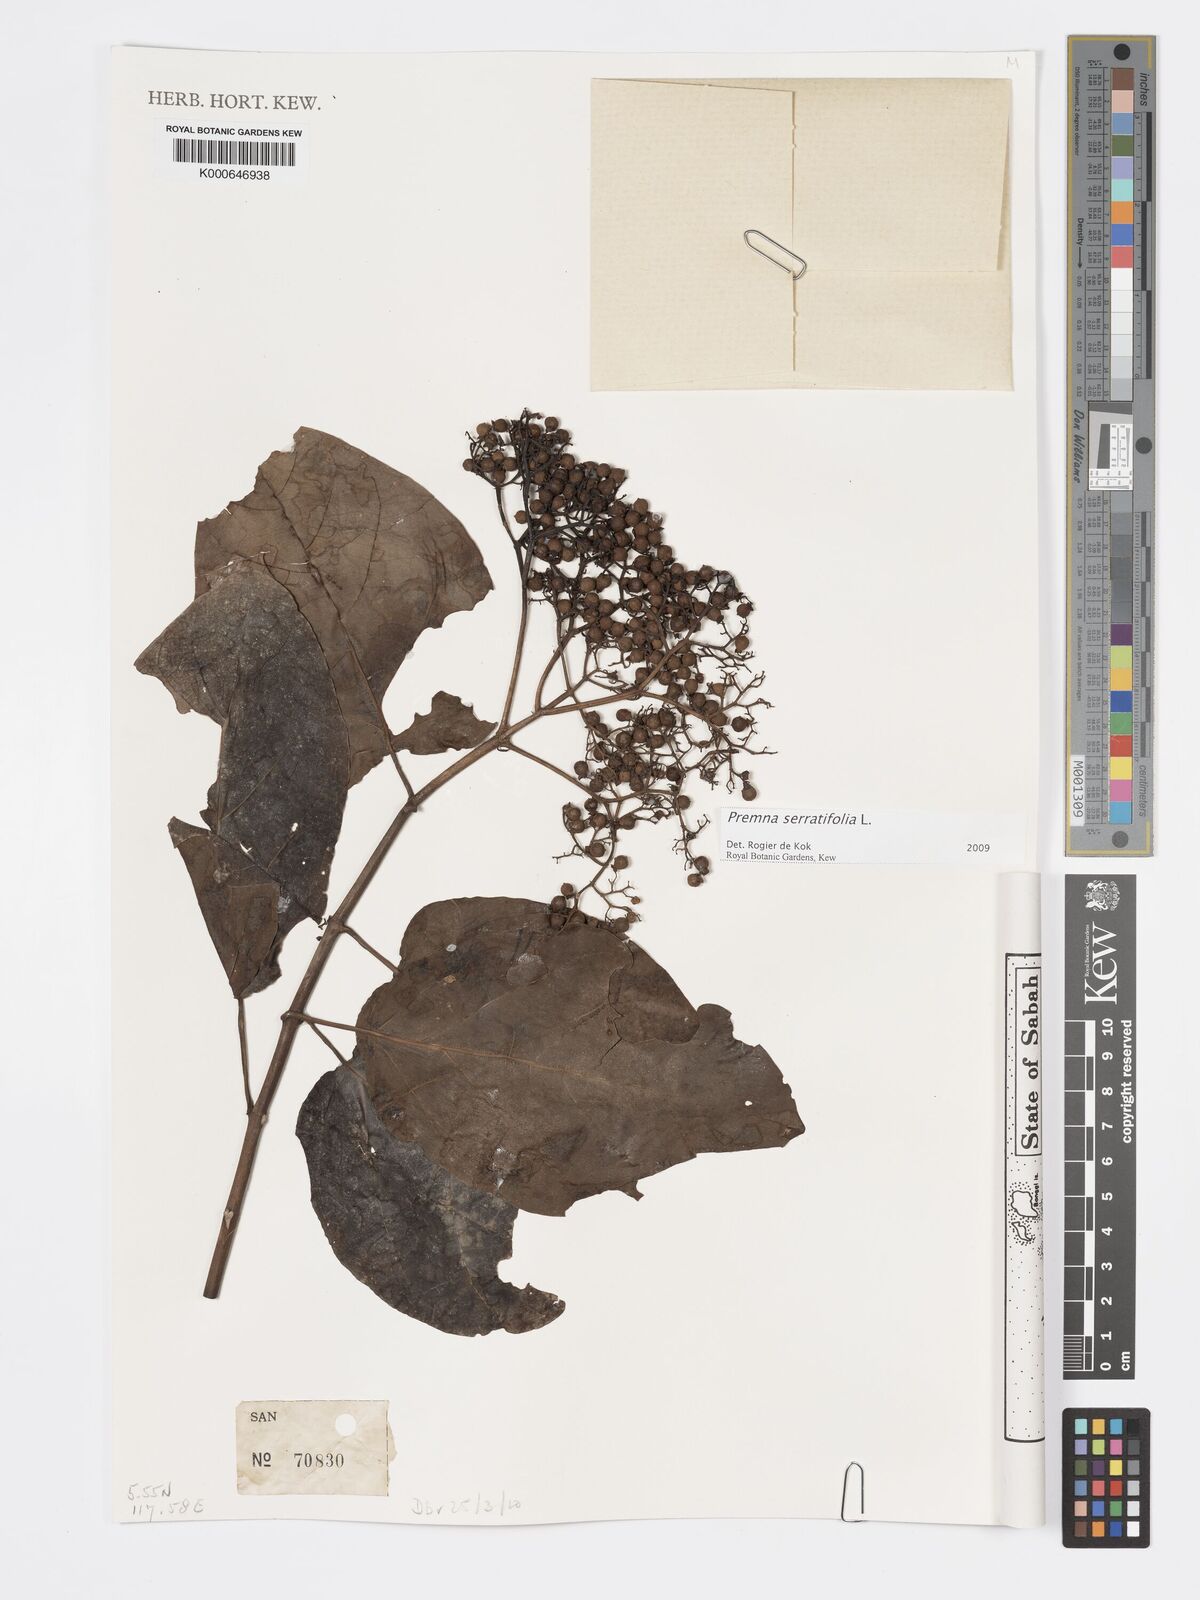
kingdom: Plantae
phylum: Tracheophyta
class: Magnoliopsida
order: Lamiales
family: Lamiaceae
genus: Premna
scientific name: Premna serratifolia
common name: Bastard guelder
